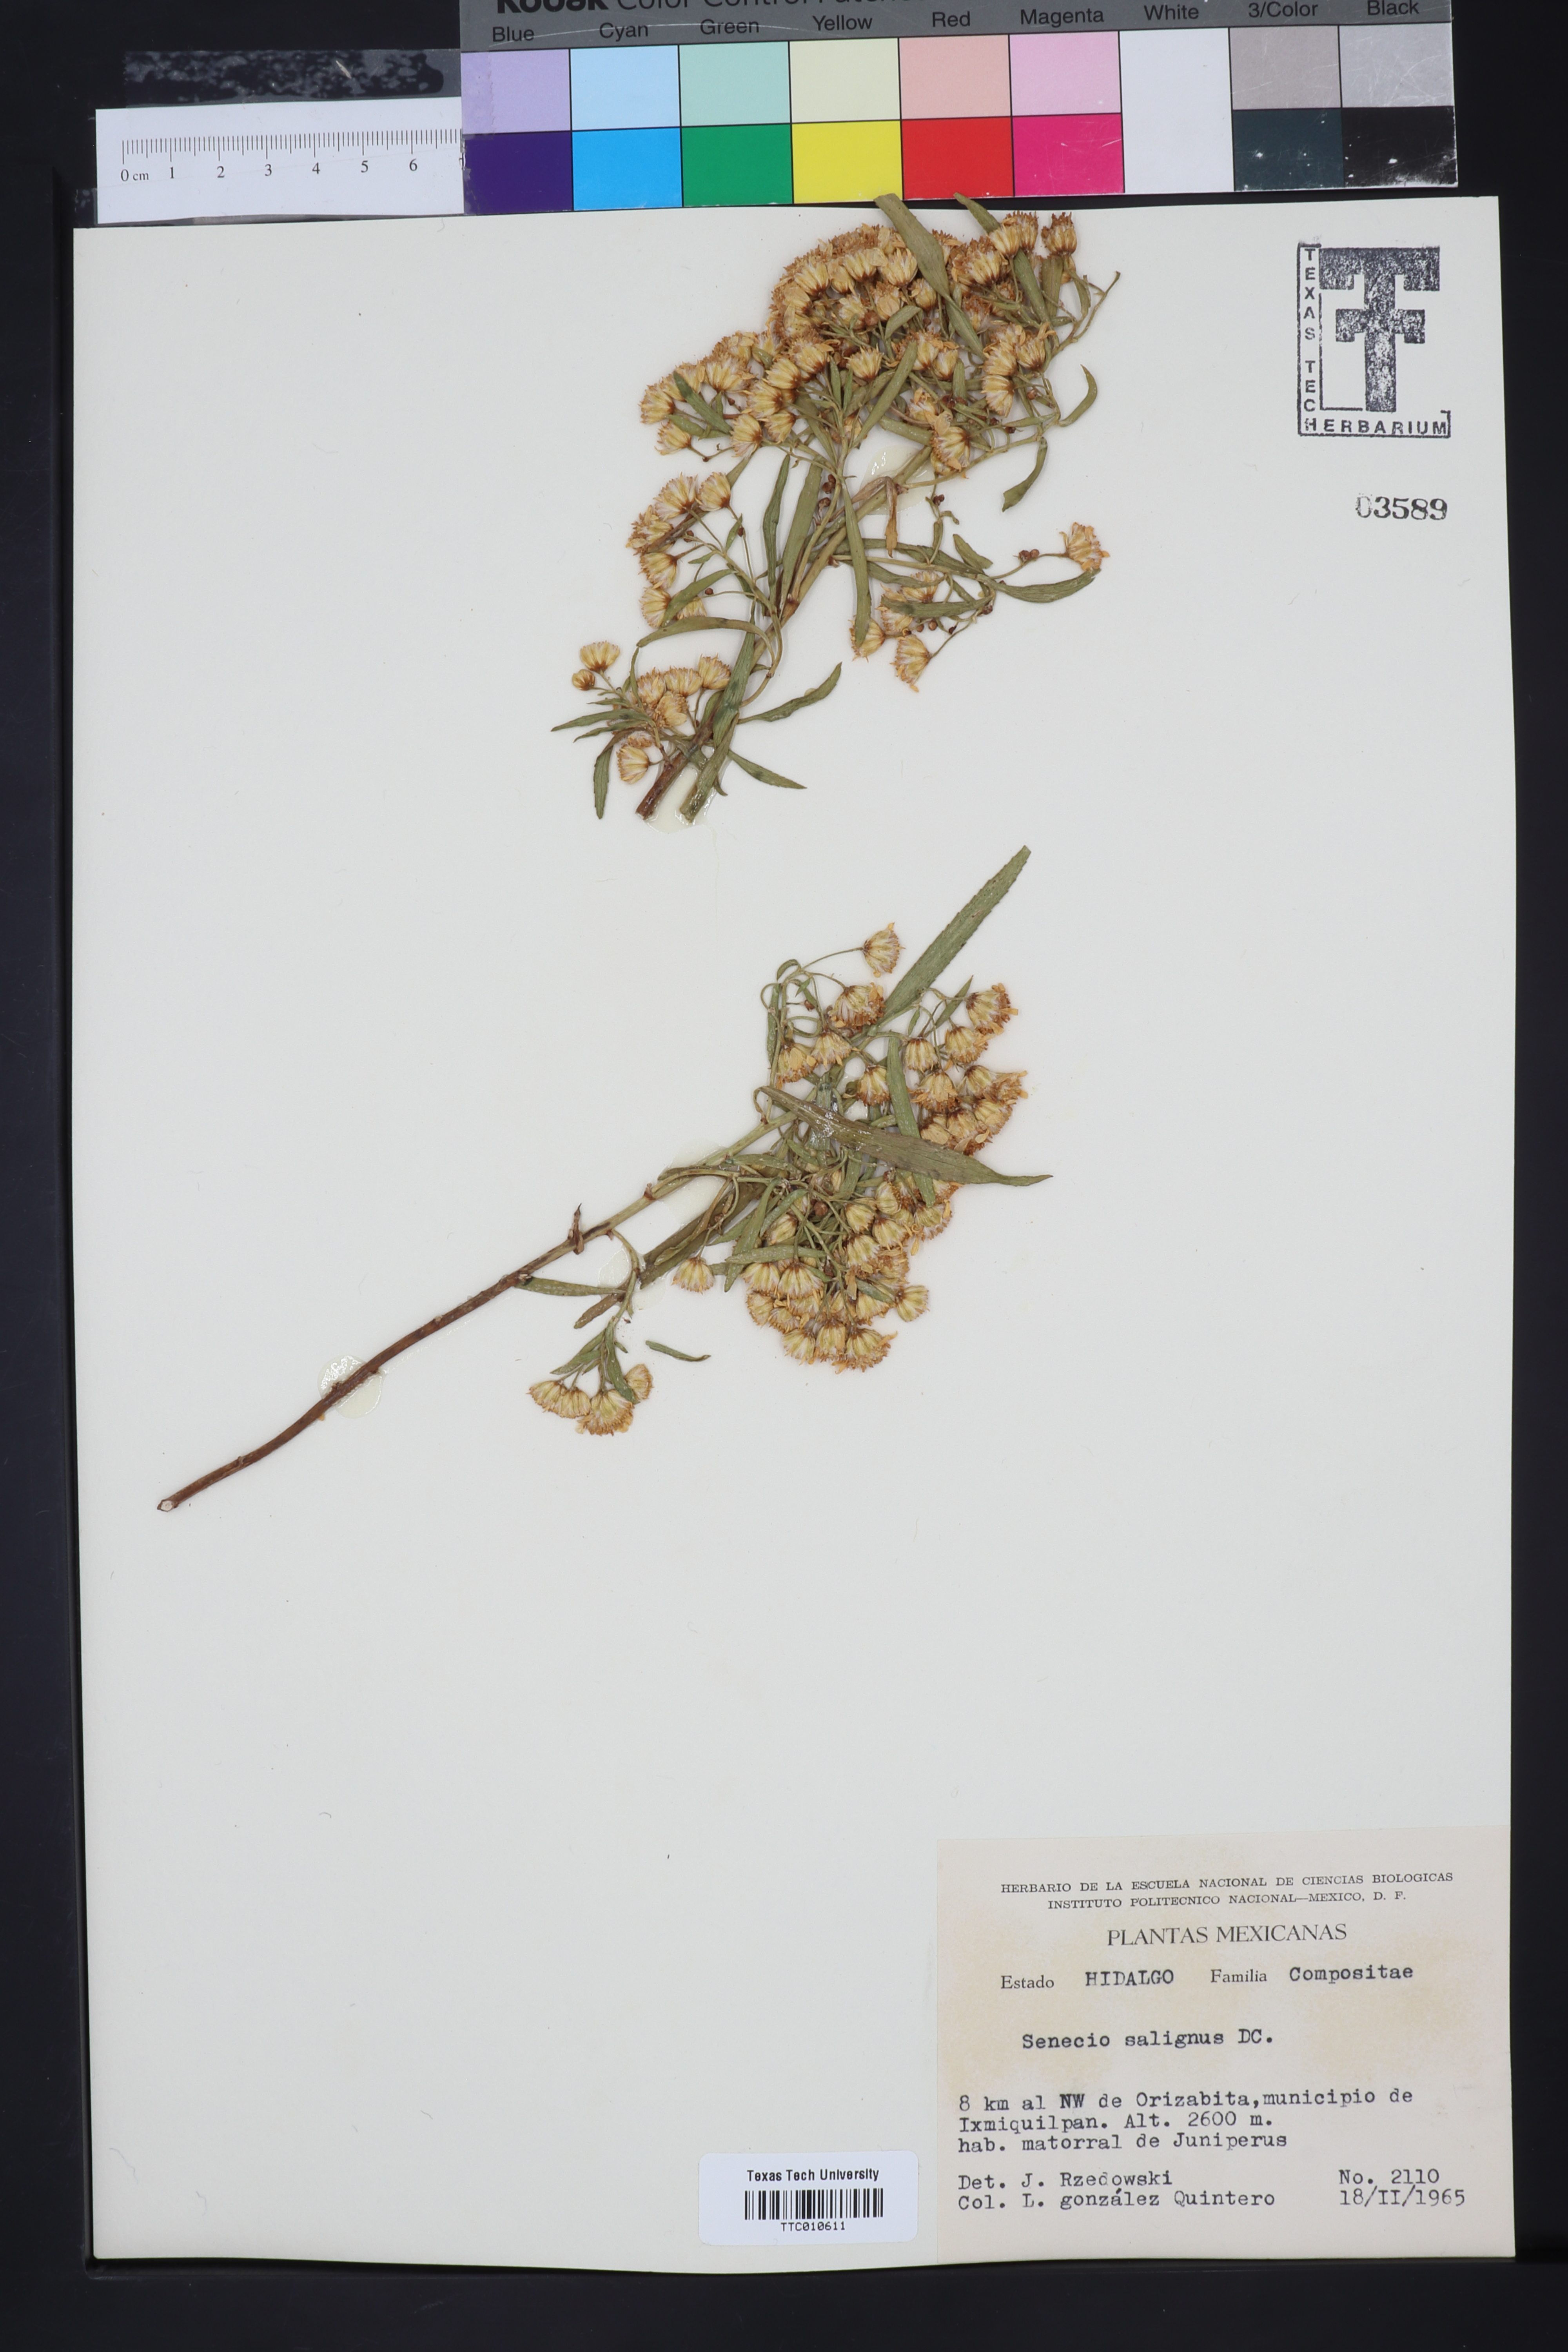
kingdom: Plantae
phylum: Tracheophyta
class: Magnoliopsida
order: Asterales
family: Asteraceae
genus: Barkleyanthus
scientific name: Barkleyanthus salicifolius
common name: Willow ragwort
